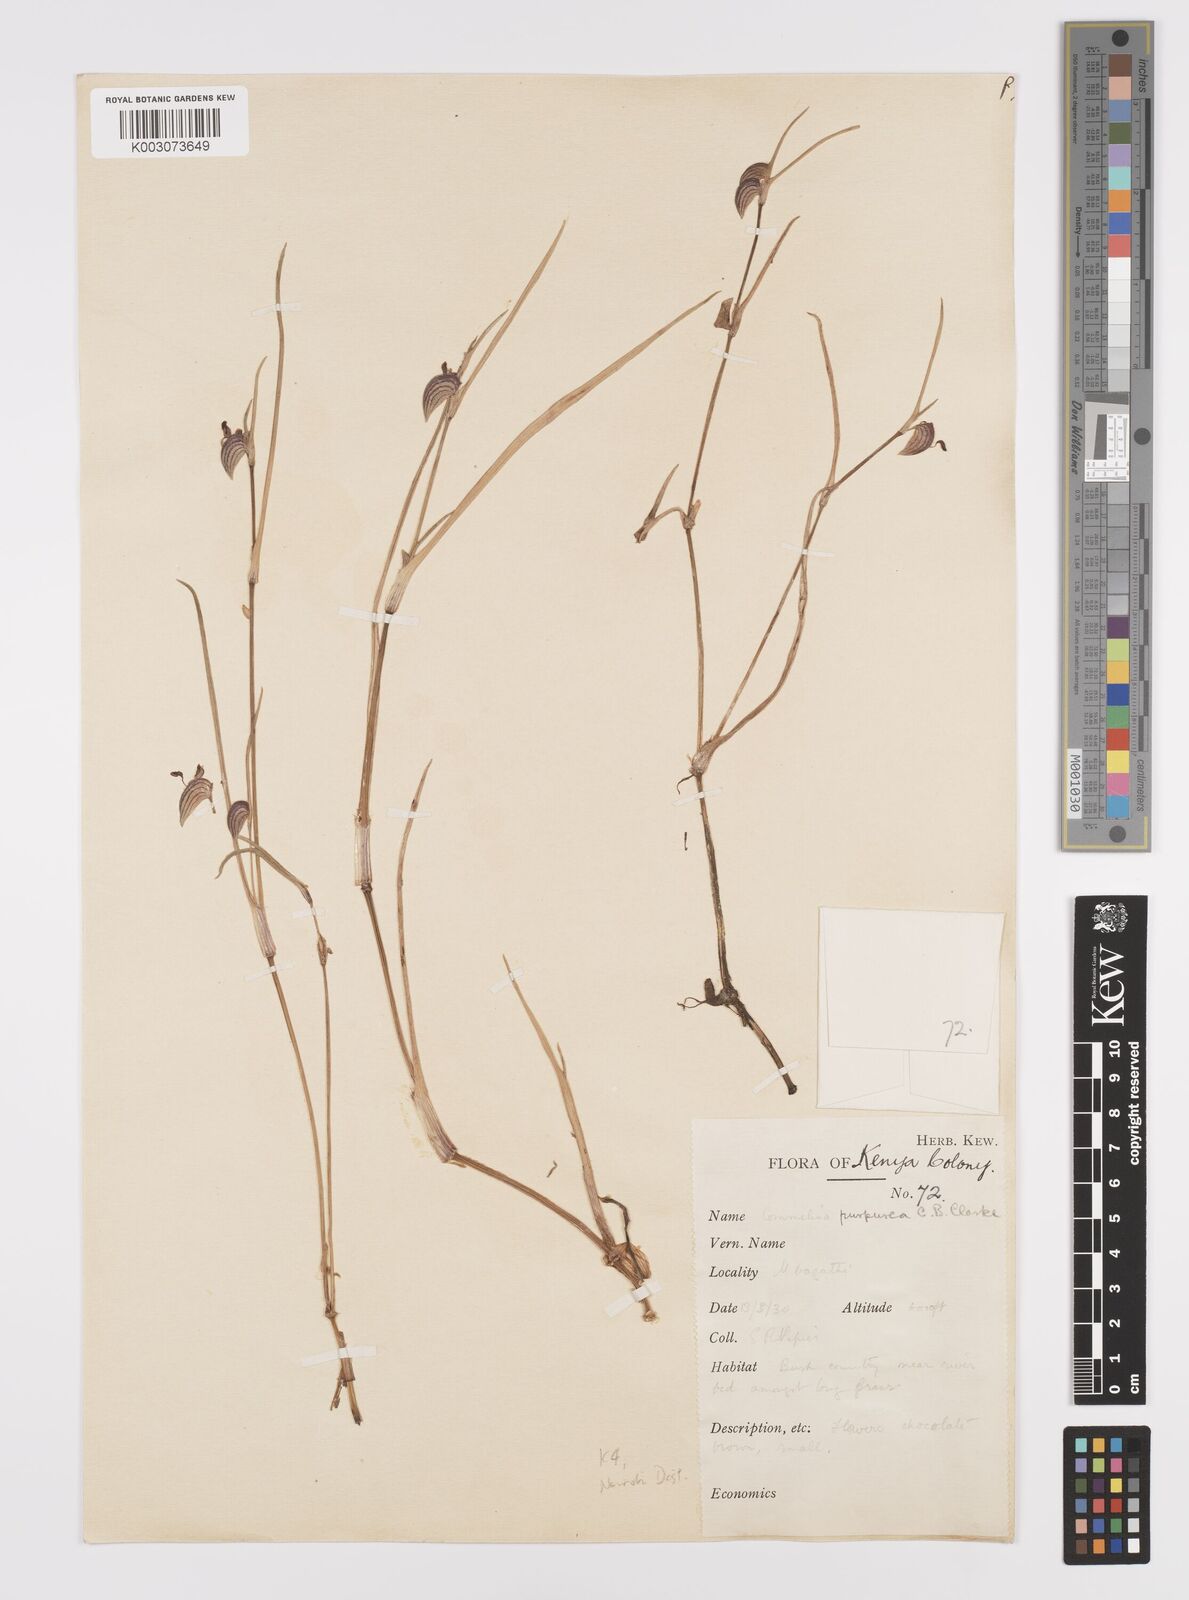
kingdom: Plantae
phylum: Tracheophyta
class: Liliopsida
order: Commelinales
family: Commelinaceae
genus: Commelina
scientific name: Commelina purpurea
